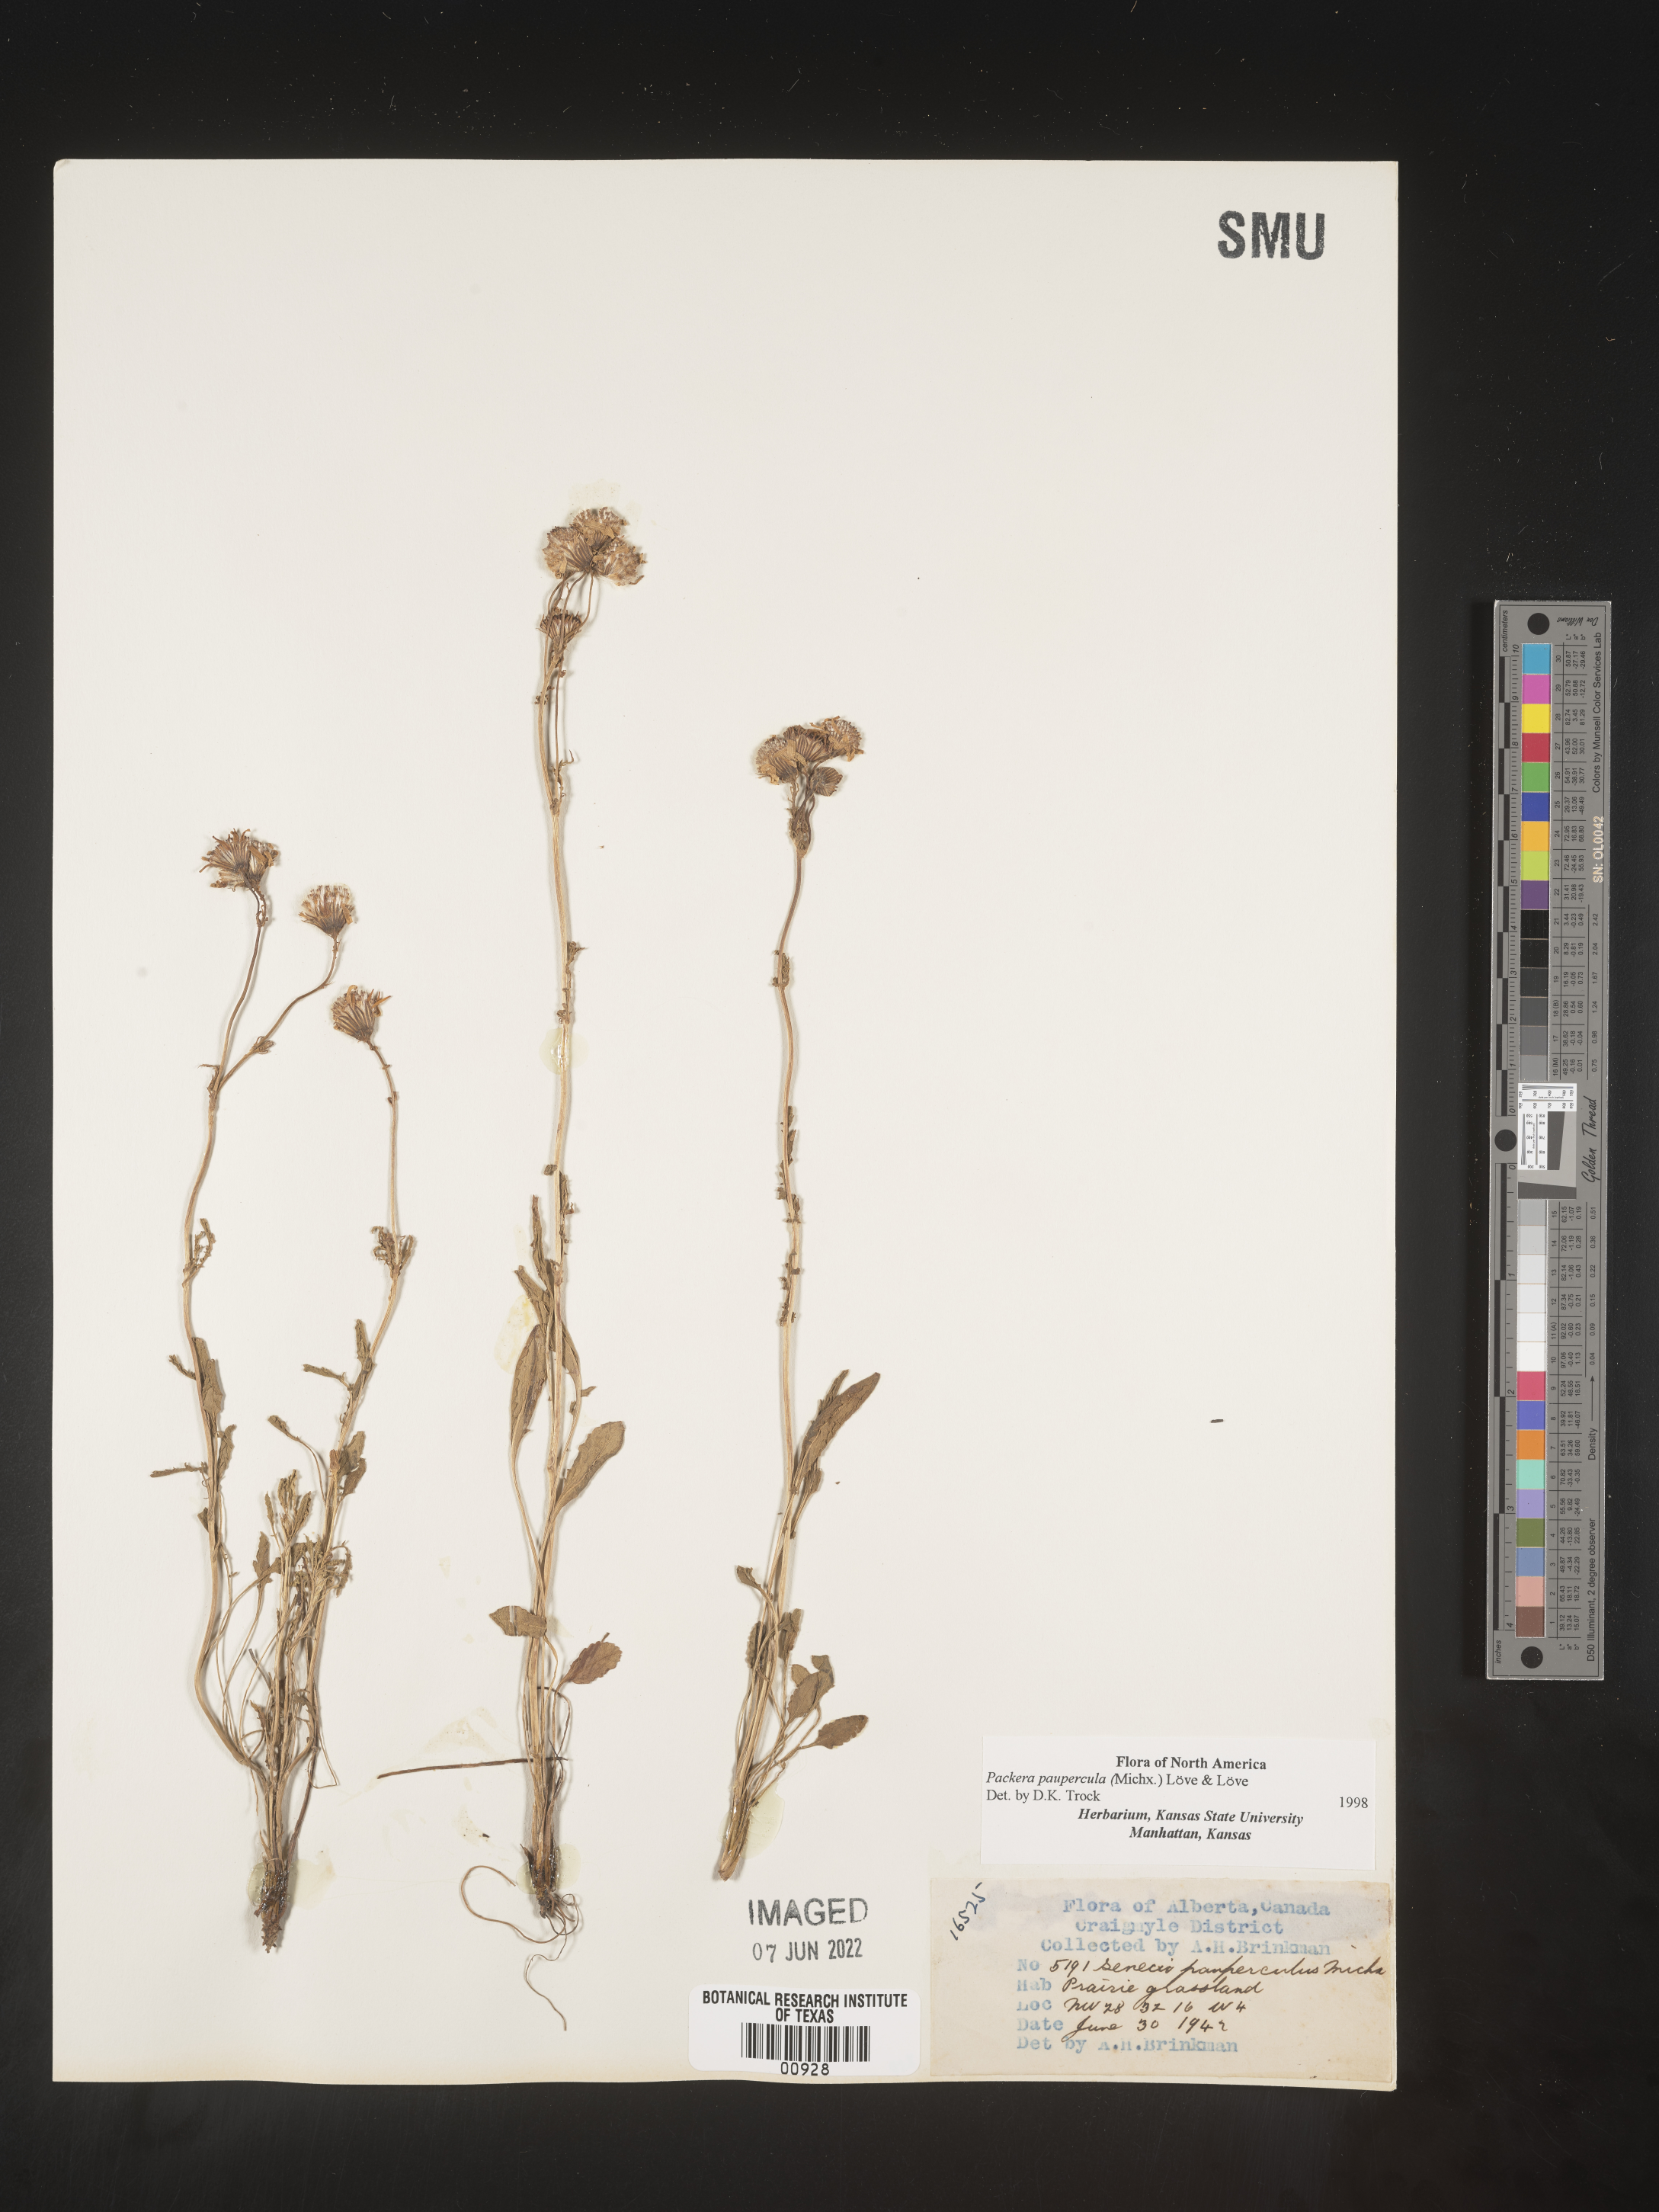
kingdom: Plantae
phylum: Tracheophyta
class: Magnoliopsida
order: Asterales
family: Asteraceae
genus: Packera
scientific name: Packera paupercula
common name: Balsam groundsel
